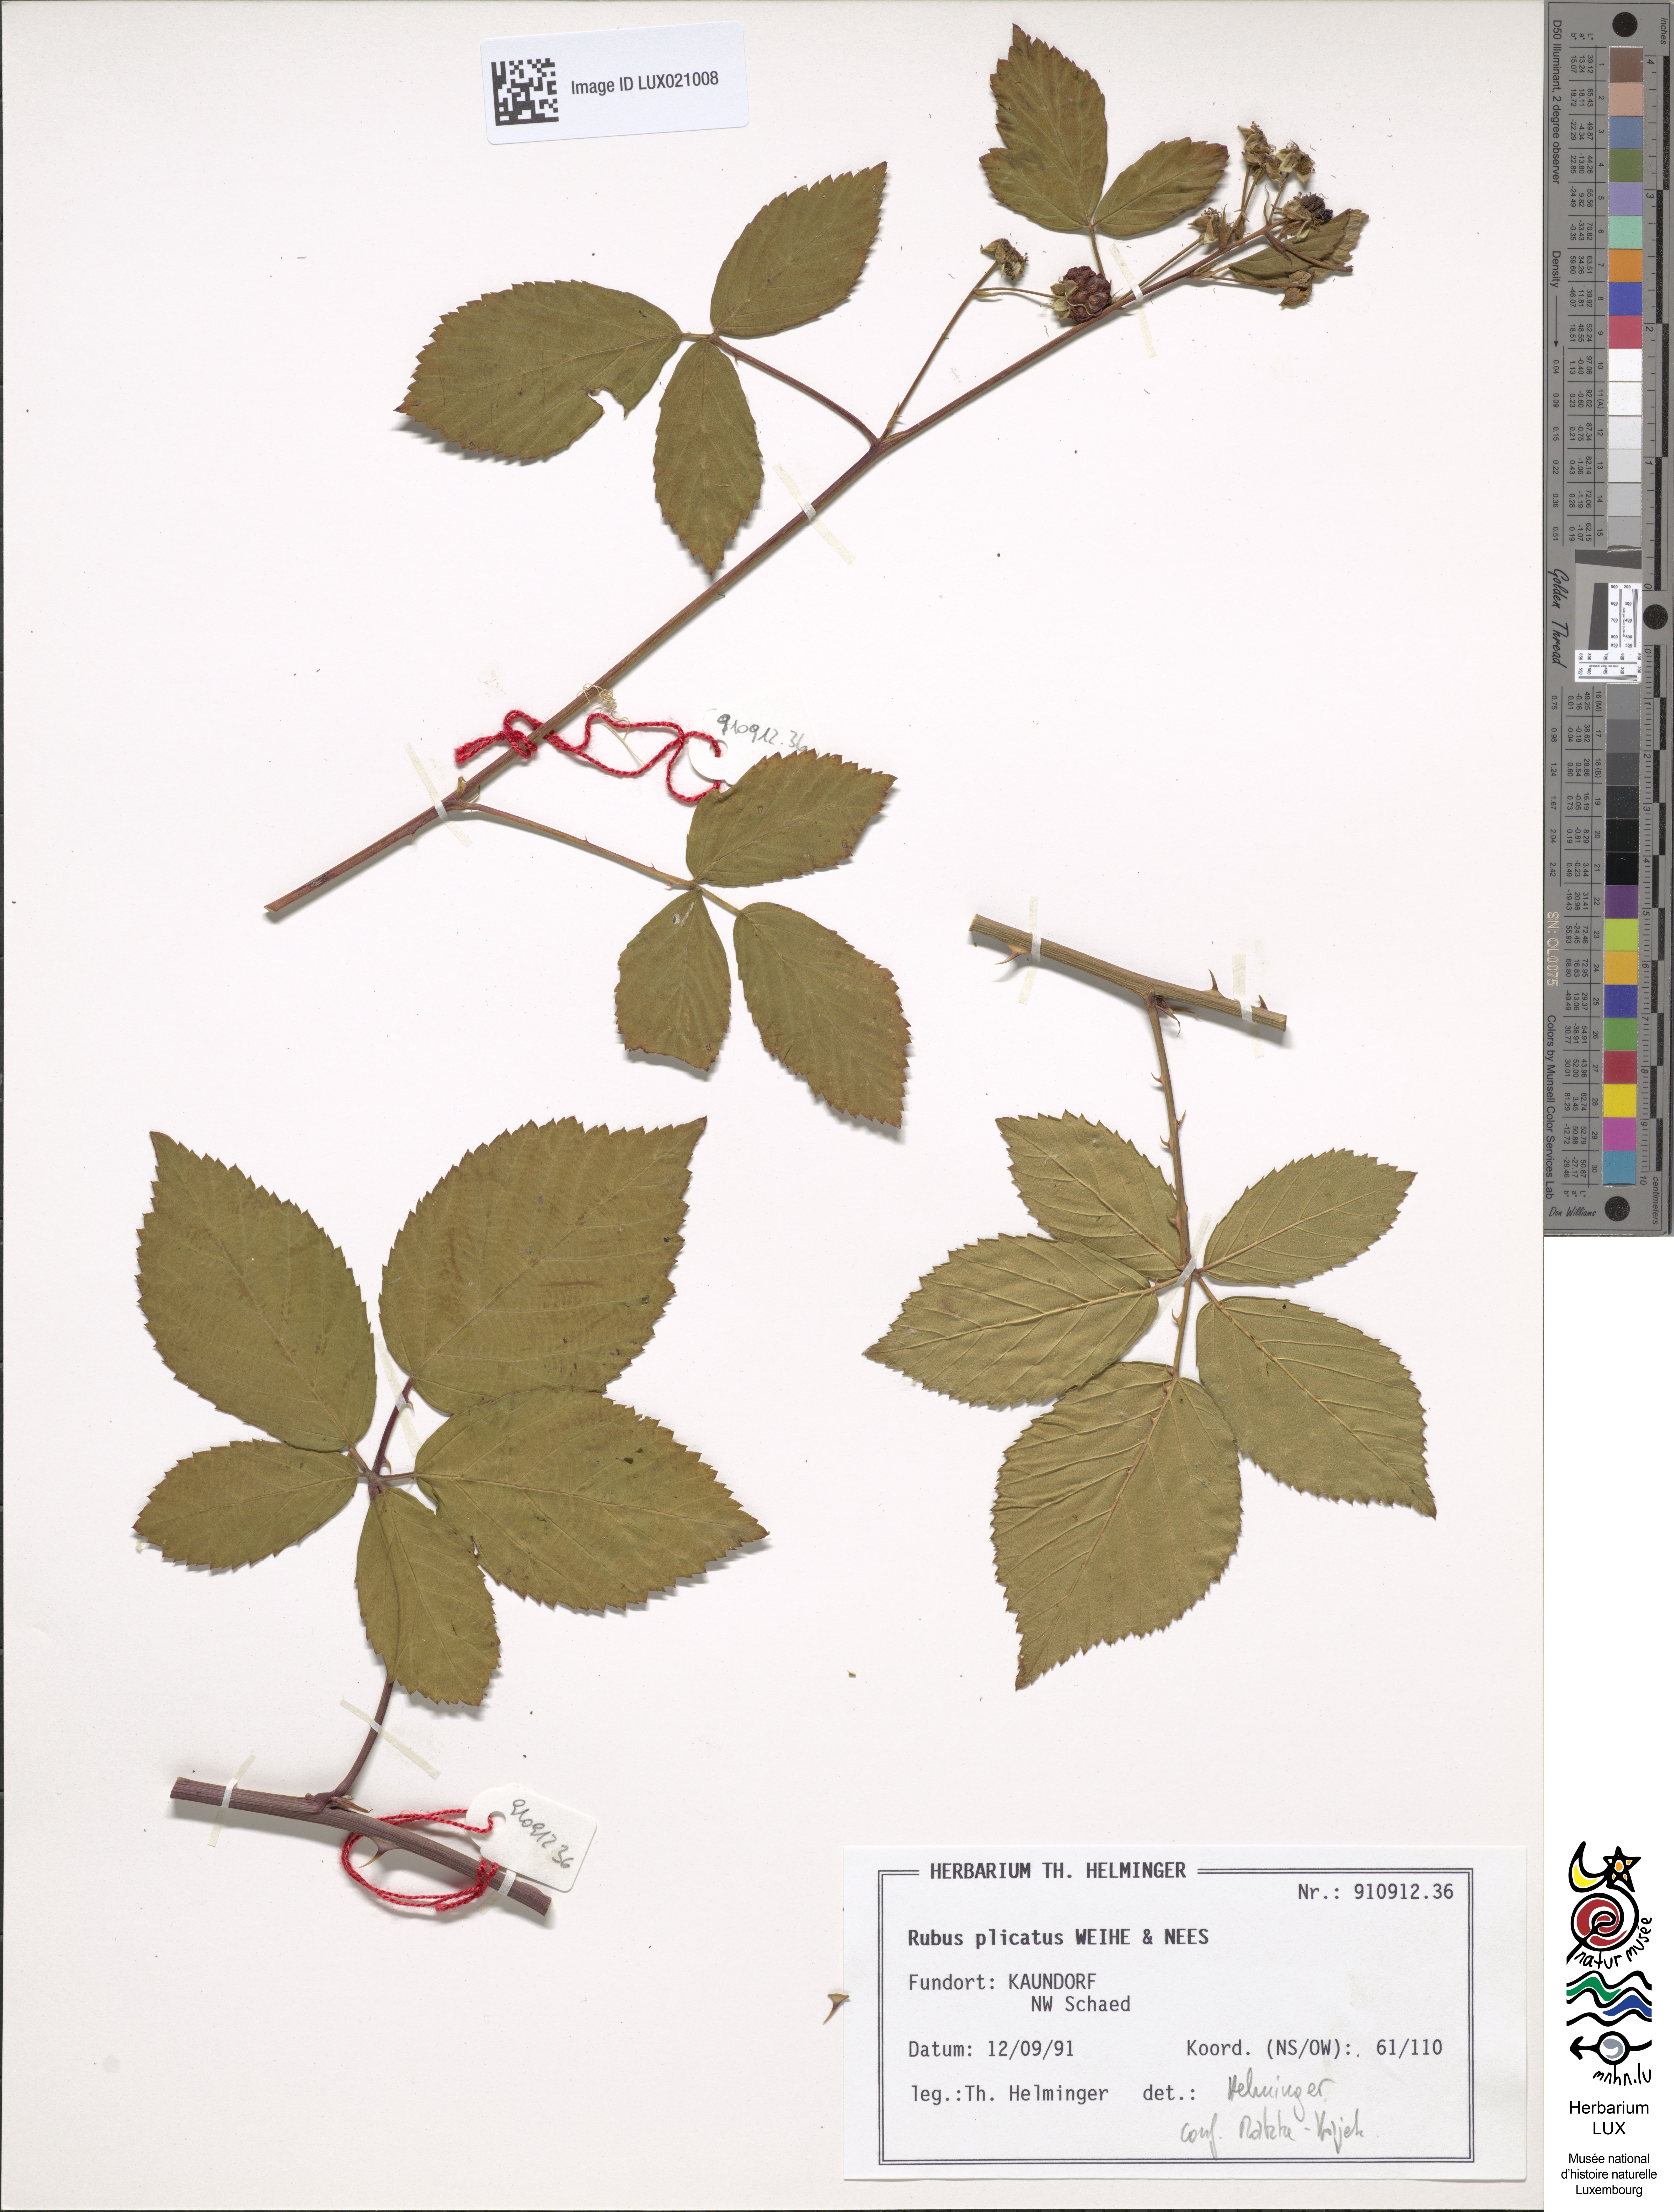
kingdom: Plantae
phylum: Tracheophyta
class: Magnoliopsida
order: Rosales
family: Rosaceae
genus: Rubus
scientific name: Rubus plicatus
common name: Plaited-leaved bramble
